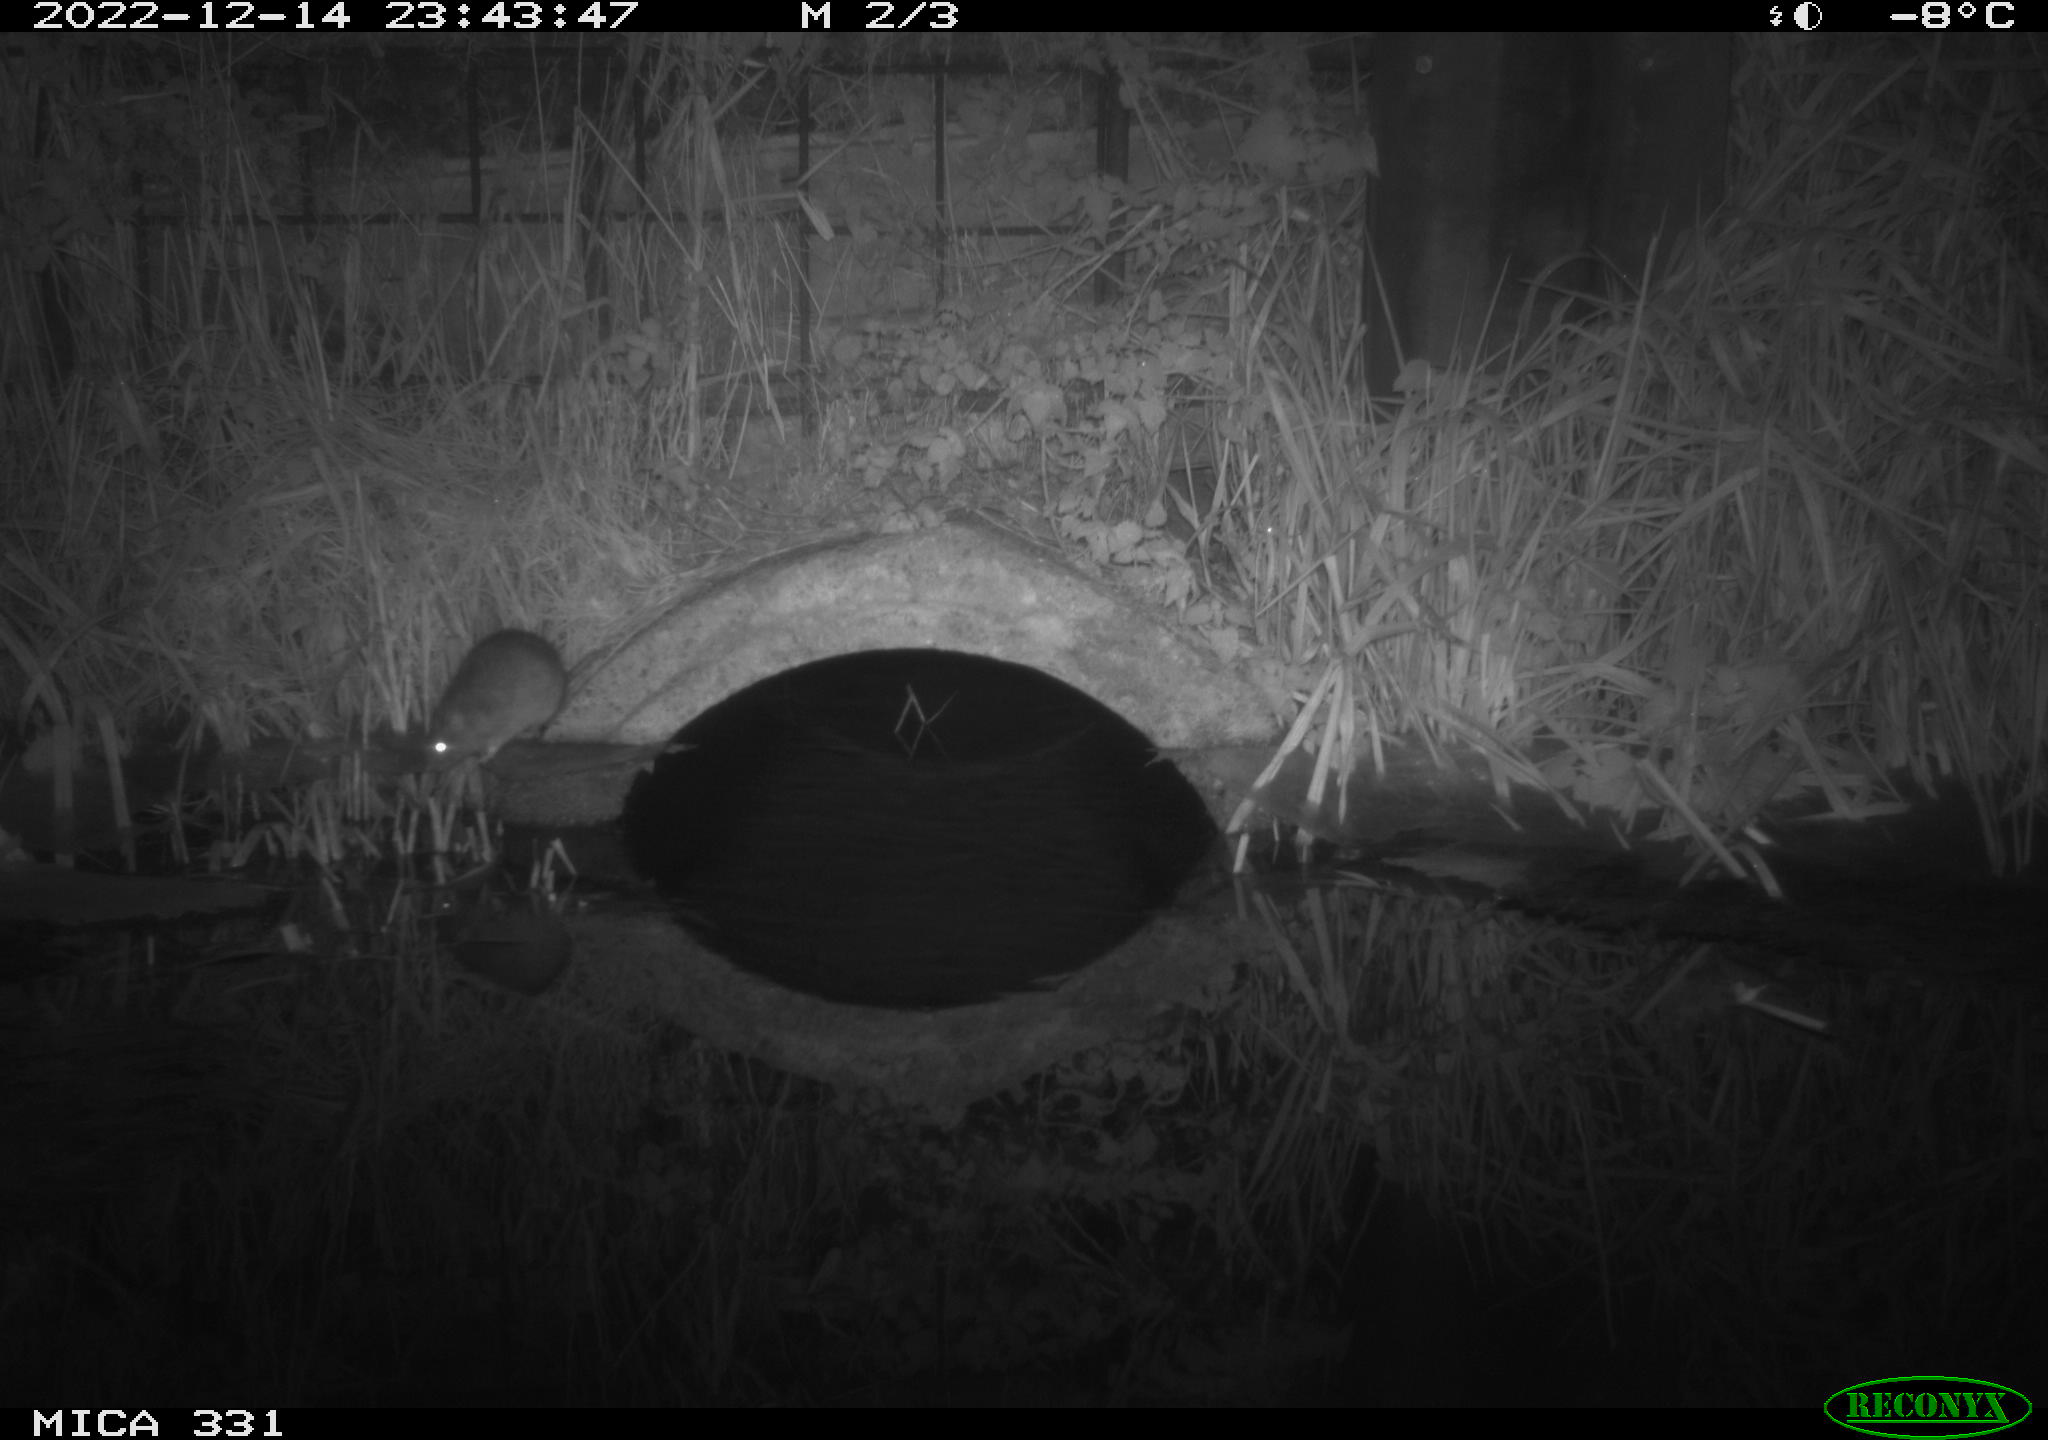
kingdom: Animalia
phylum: Chordata
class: Mammalia
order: Rodentia
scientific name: Rodentia
